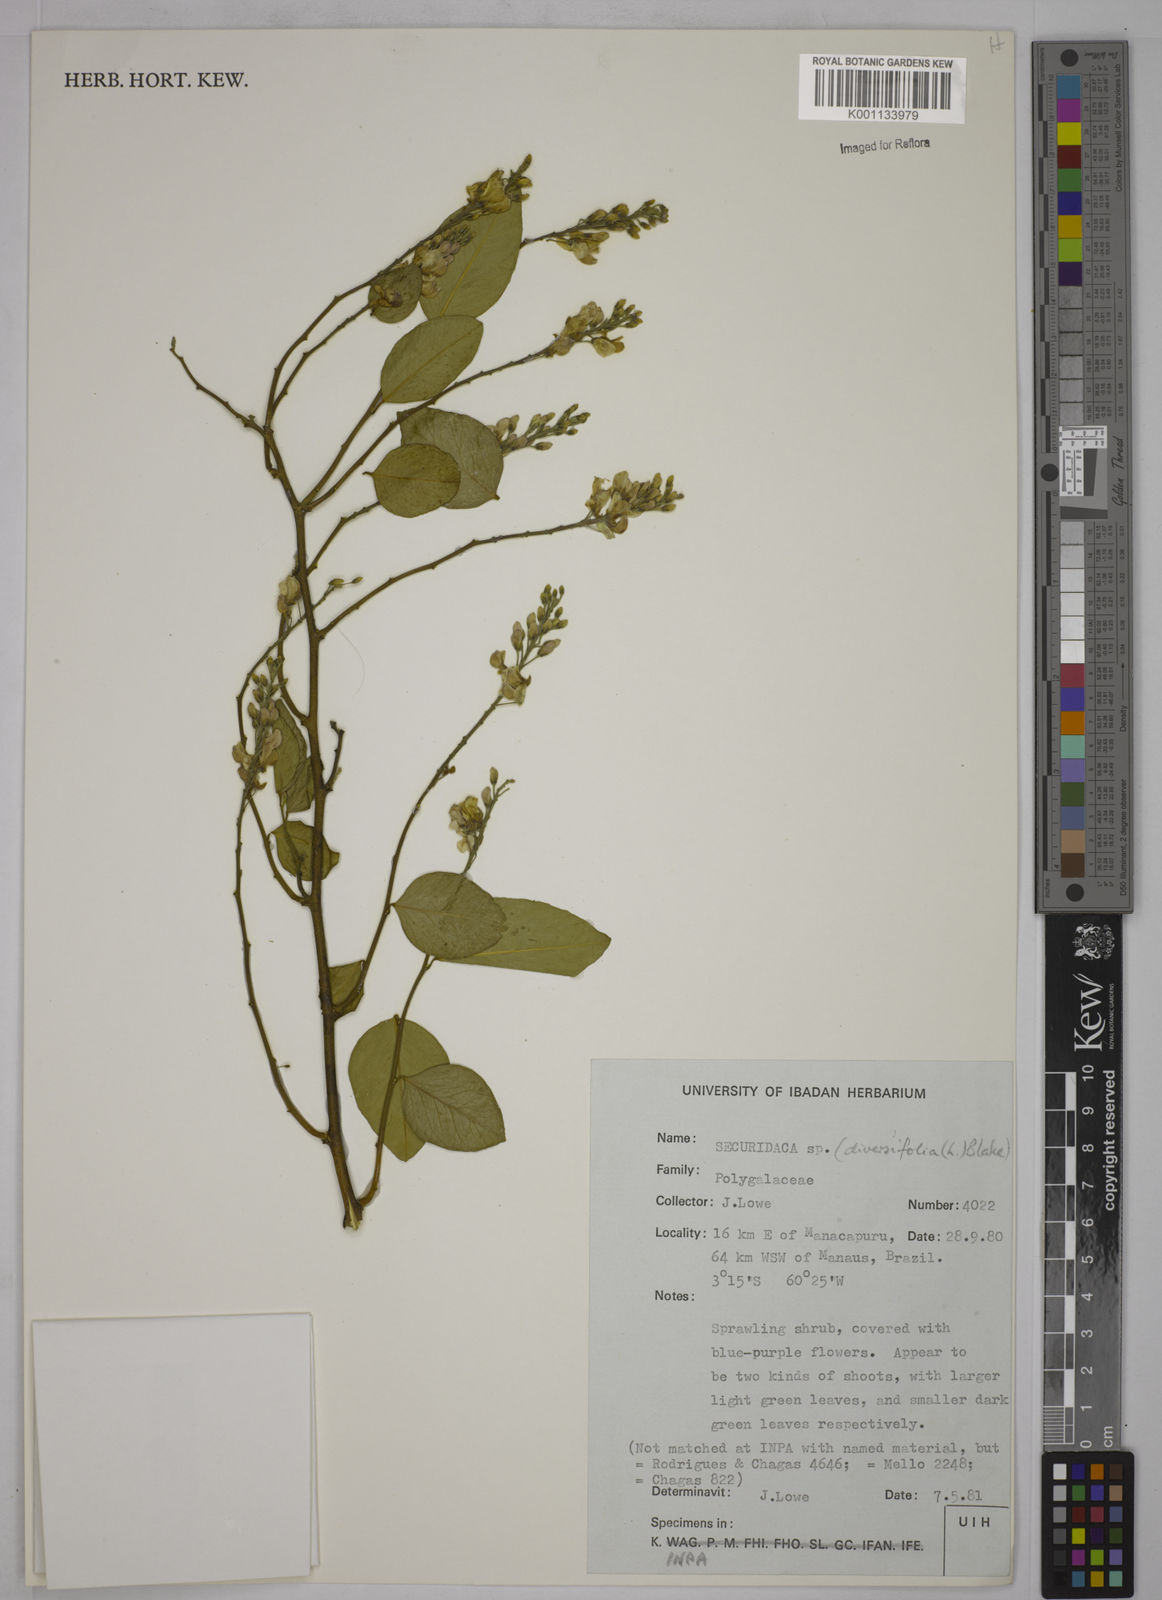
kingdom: Plantae
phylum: Tracheophyta
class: Magnoliopsida
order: Fabales
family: Polygalaceae
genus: Securidaca
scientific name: Securidaca diversifolia
